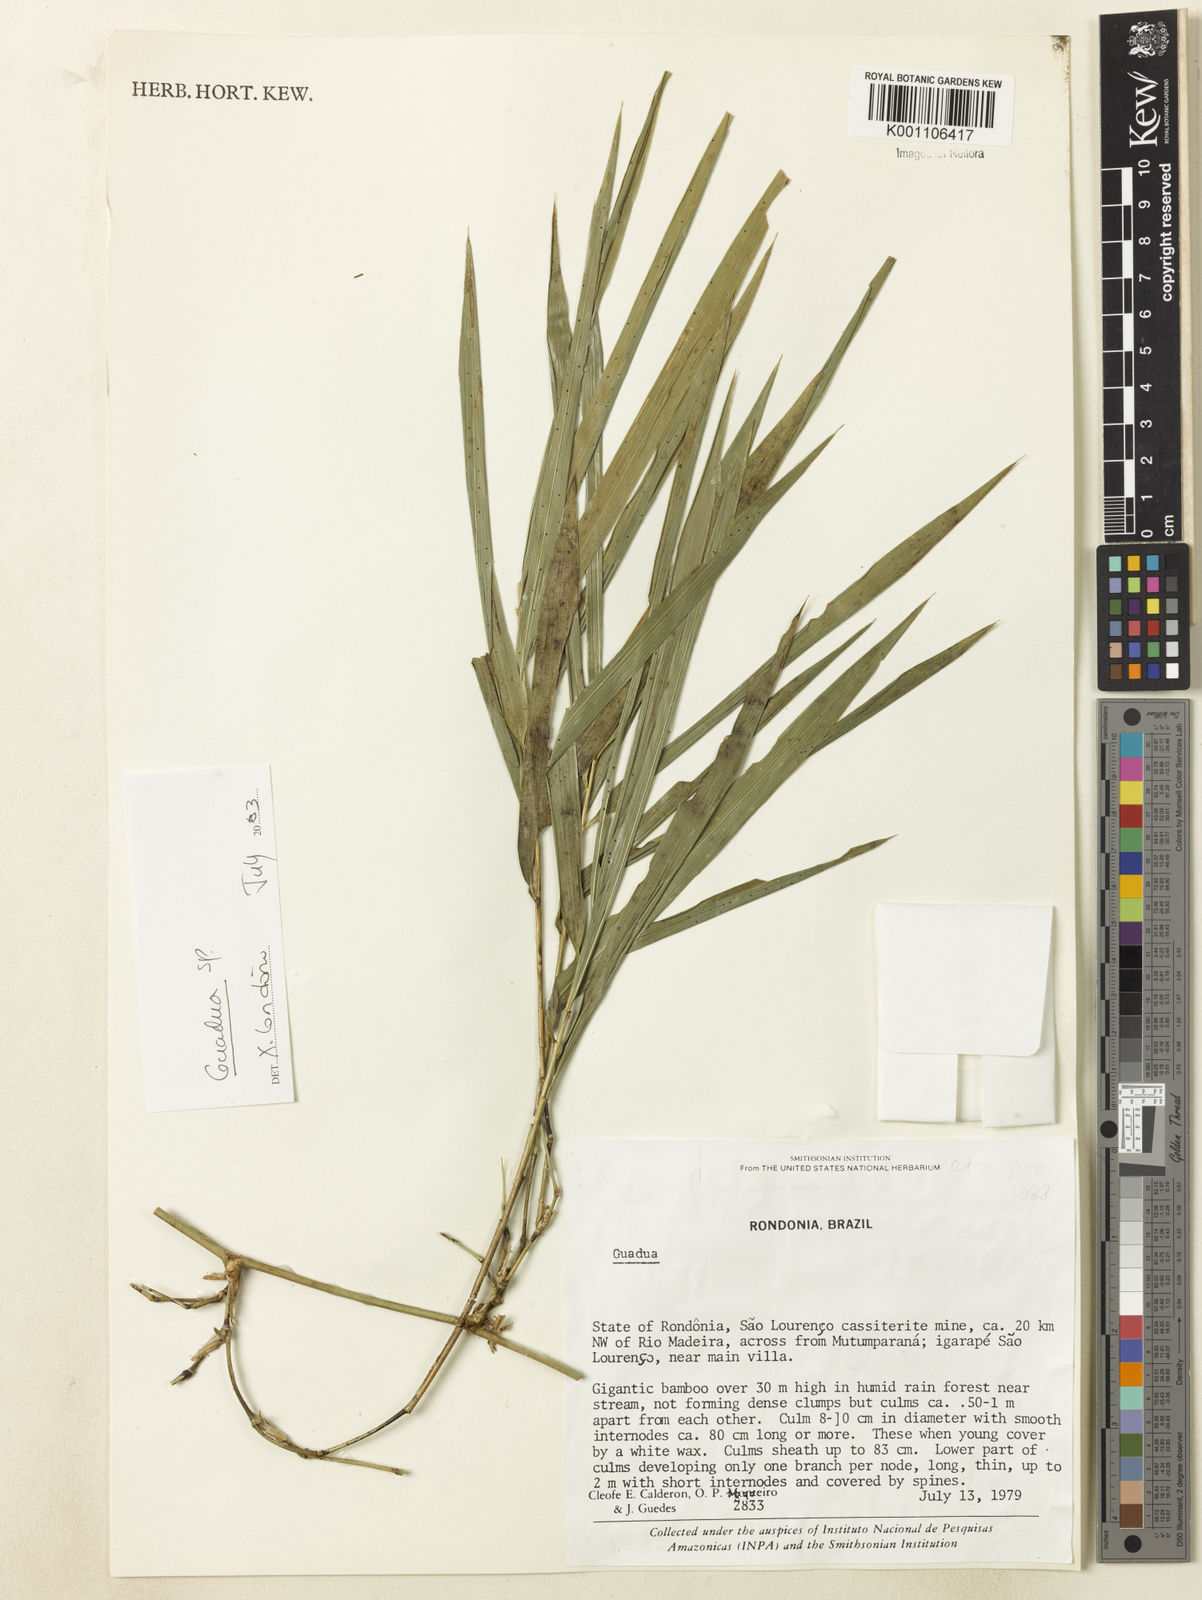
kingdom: Plantae
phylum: Tracheophyta
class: Liliopsida
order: Poales
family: Poaceae
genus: Guadua
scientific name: Guadua
